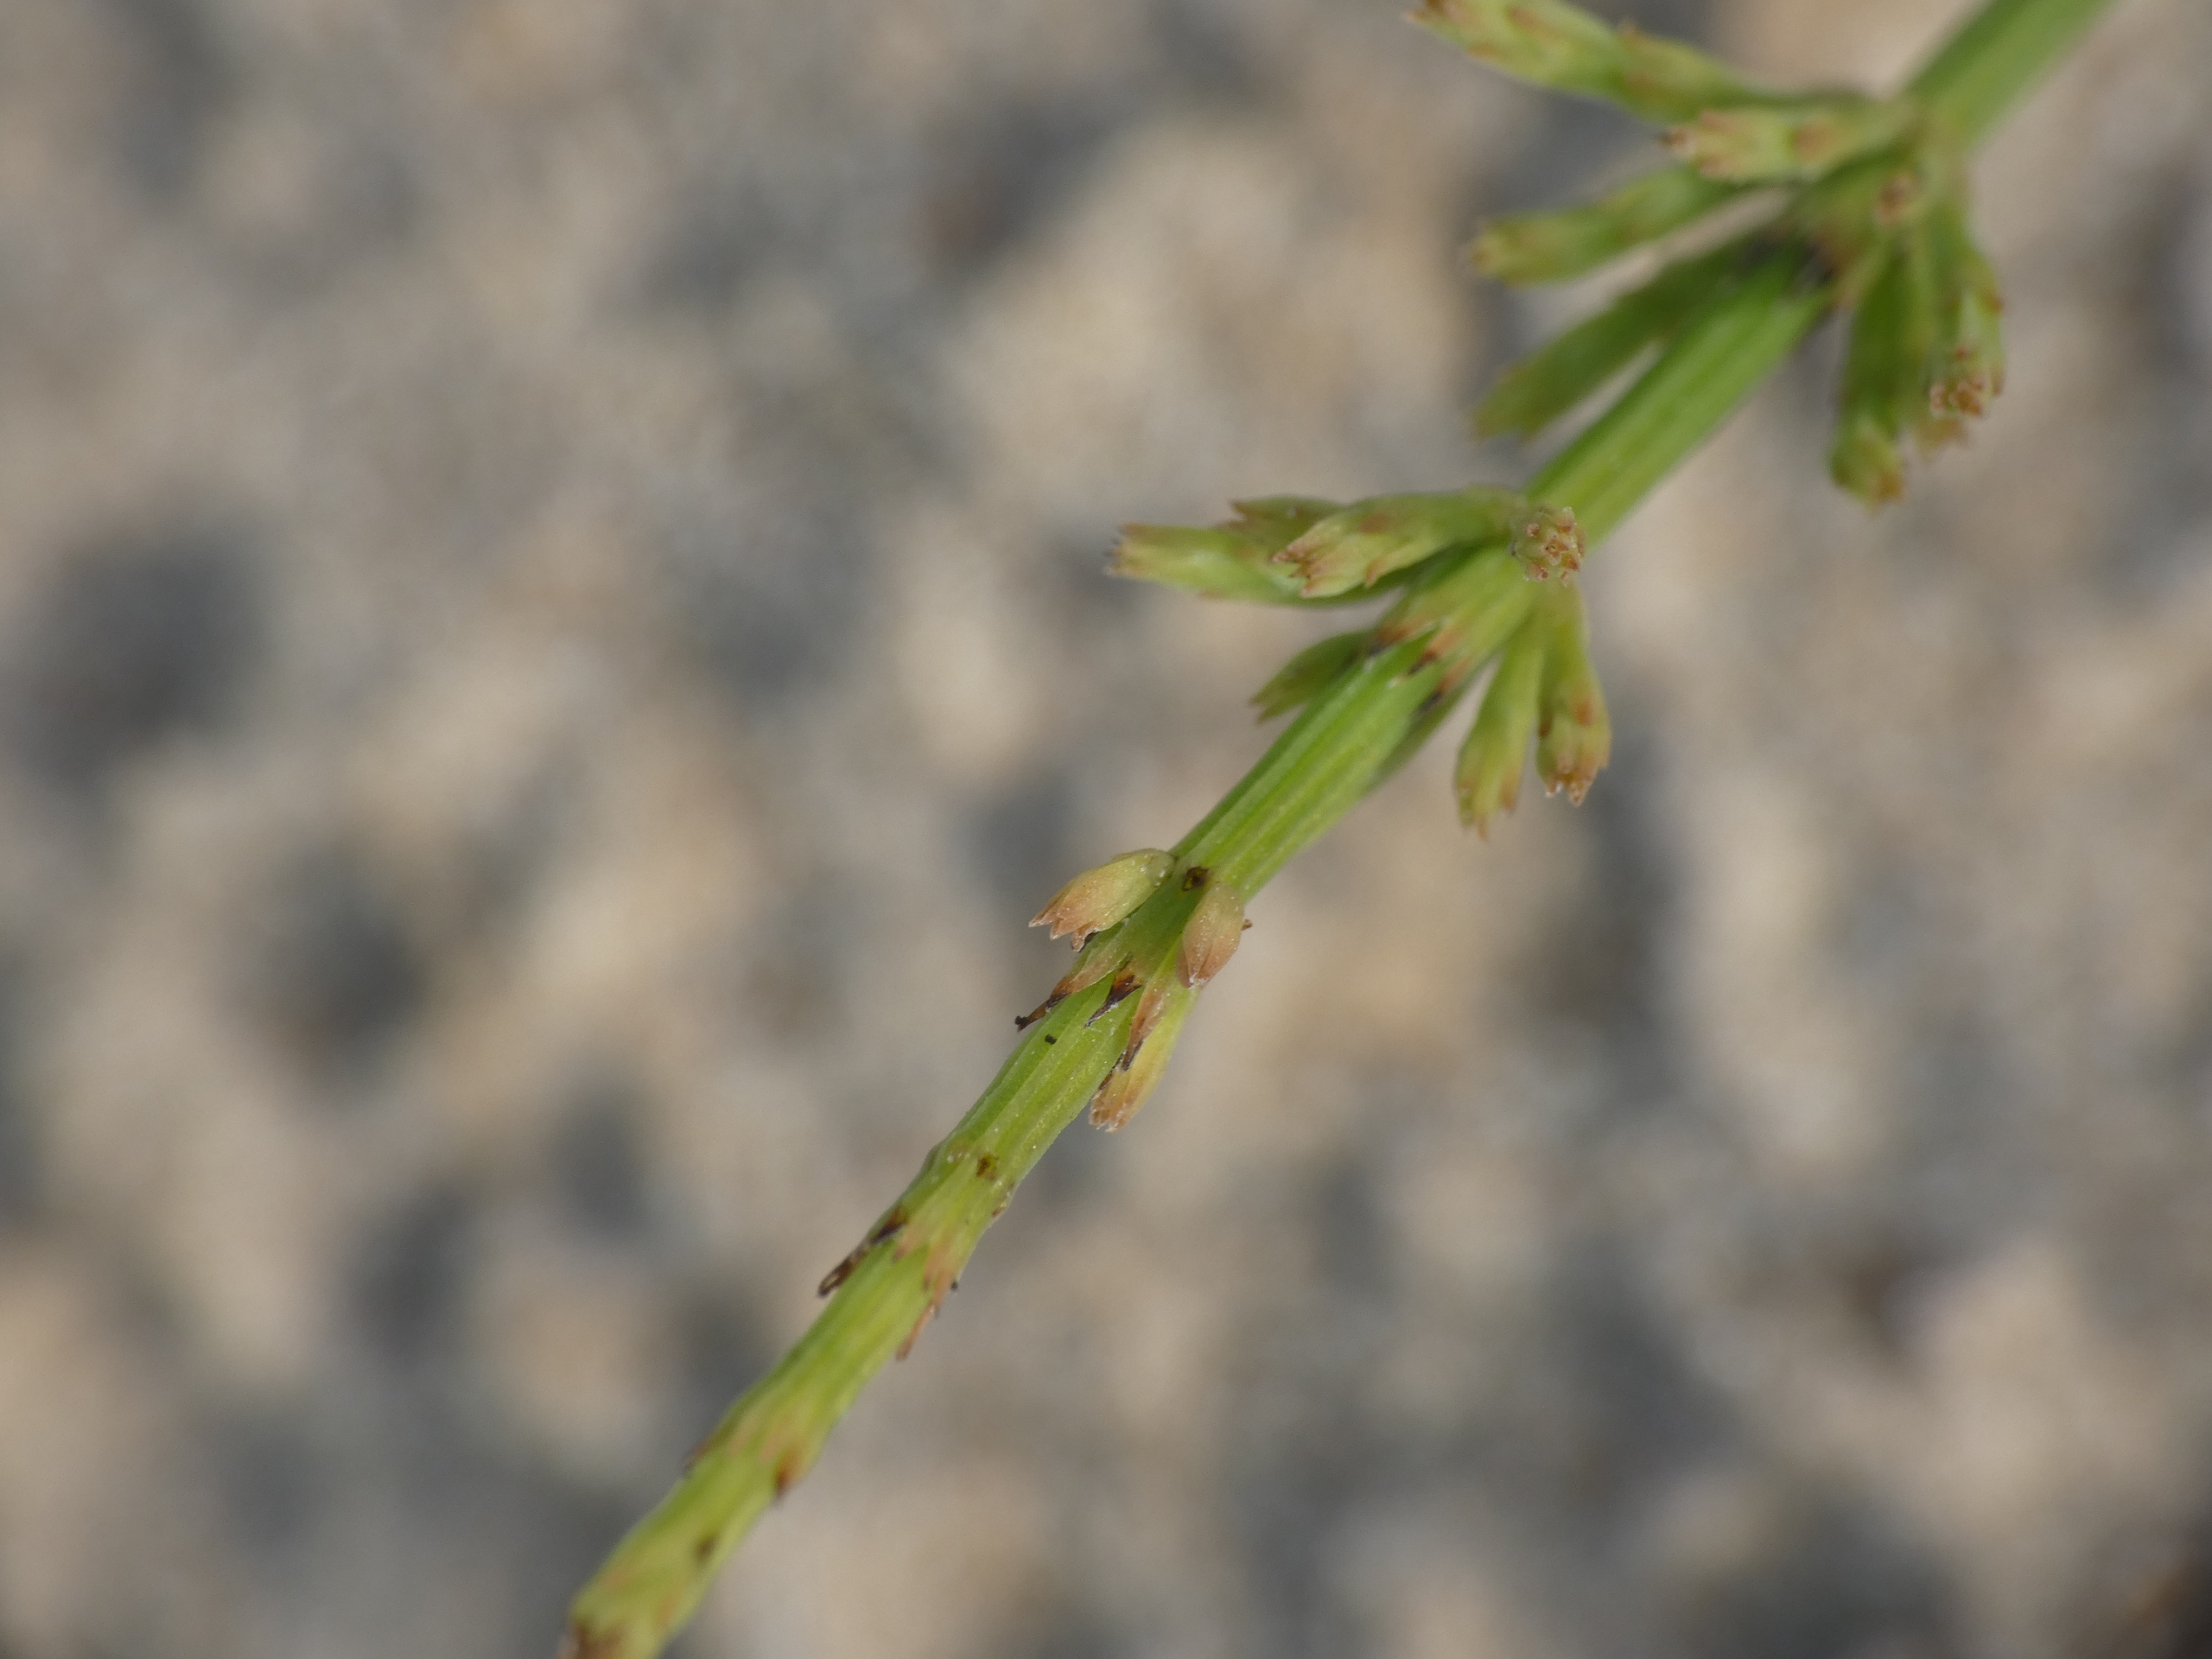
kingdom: Plantae
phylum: Tracheophyta
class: Polypodiopsida
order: Equisetales
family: Equisetaceae
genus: Equisetum
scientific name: Equisetum arvense
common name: Ager-padderok
